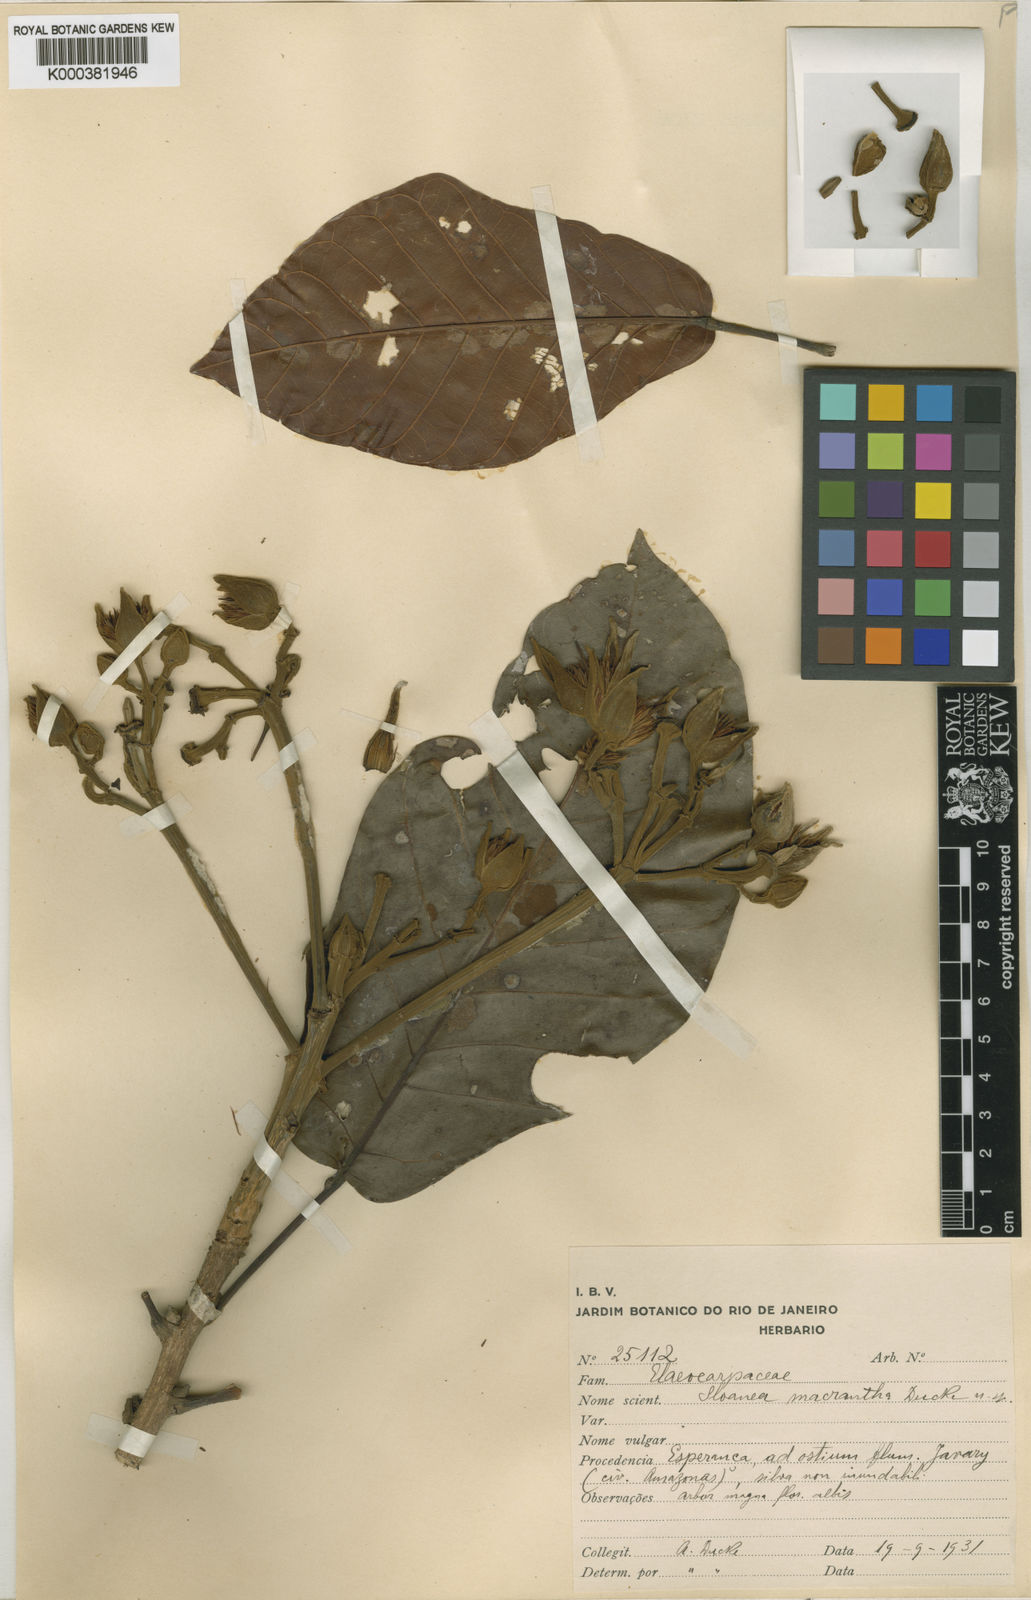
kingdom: Plantae
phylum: Tracheophyta
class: Magnoliopsida
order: Oxalidales
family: Elaeocarpaceae
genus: Sloanea
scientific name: Sloanea synandra
